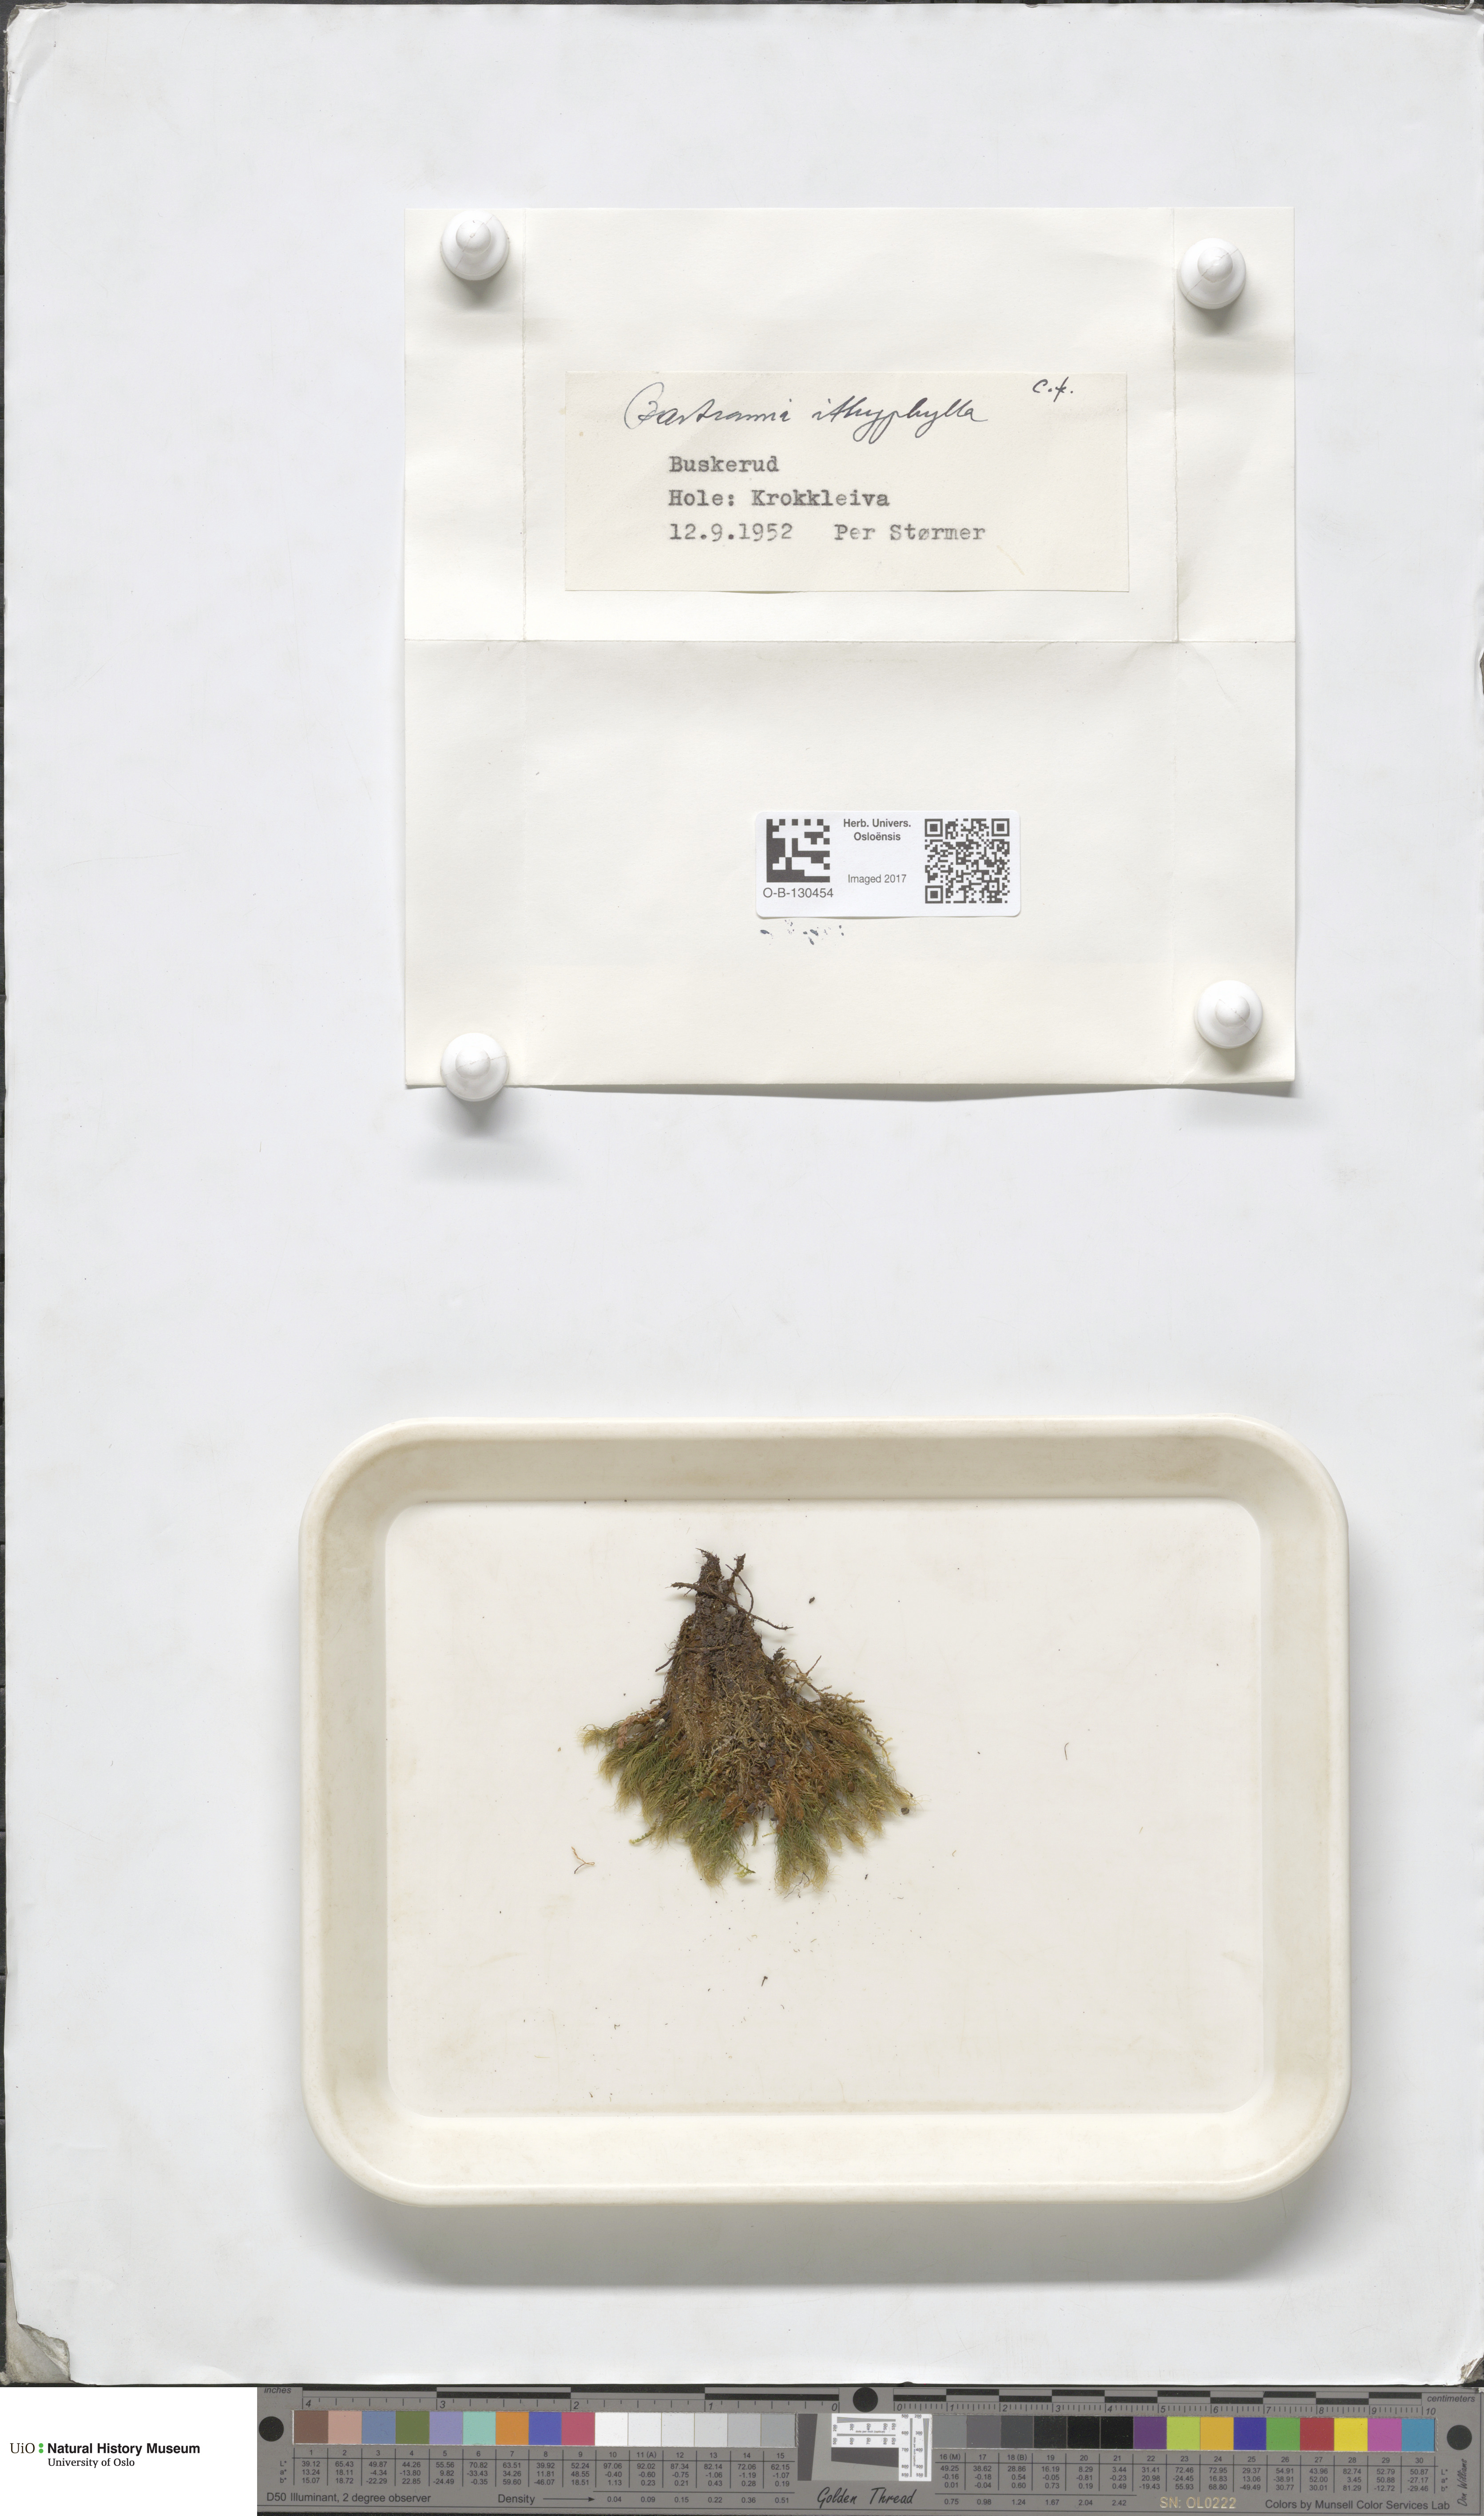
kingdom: Plantae
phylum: Bryophyta
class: Bryopsida
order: Bartramiales
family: Bartramiaceae
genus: Bartramia
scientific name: Bartramia ithyphylla
